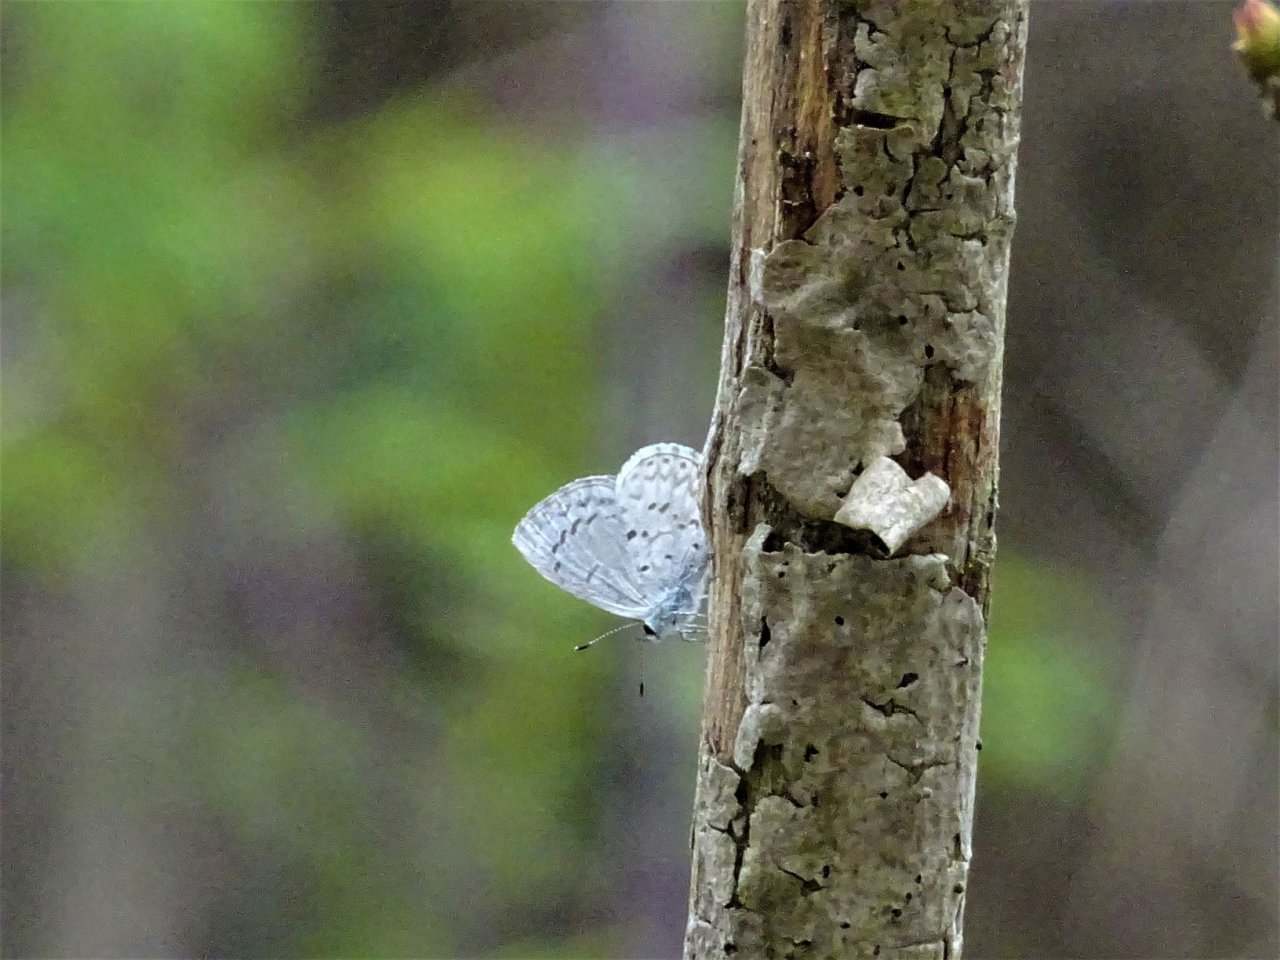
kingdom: Animalia
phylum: Arthropoda
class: Insecta
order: Lepidoptera
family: Lycaenidae
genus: Celastrina
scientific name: Celastrina
